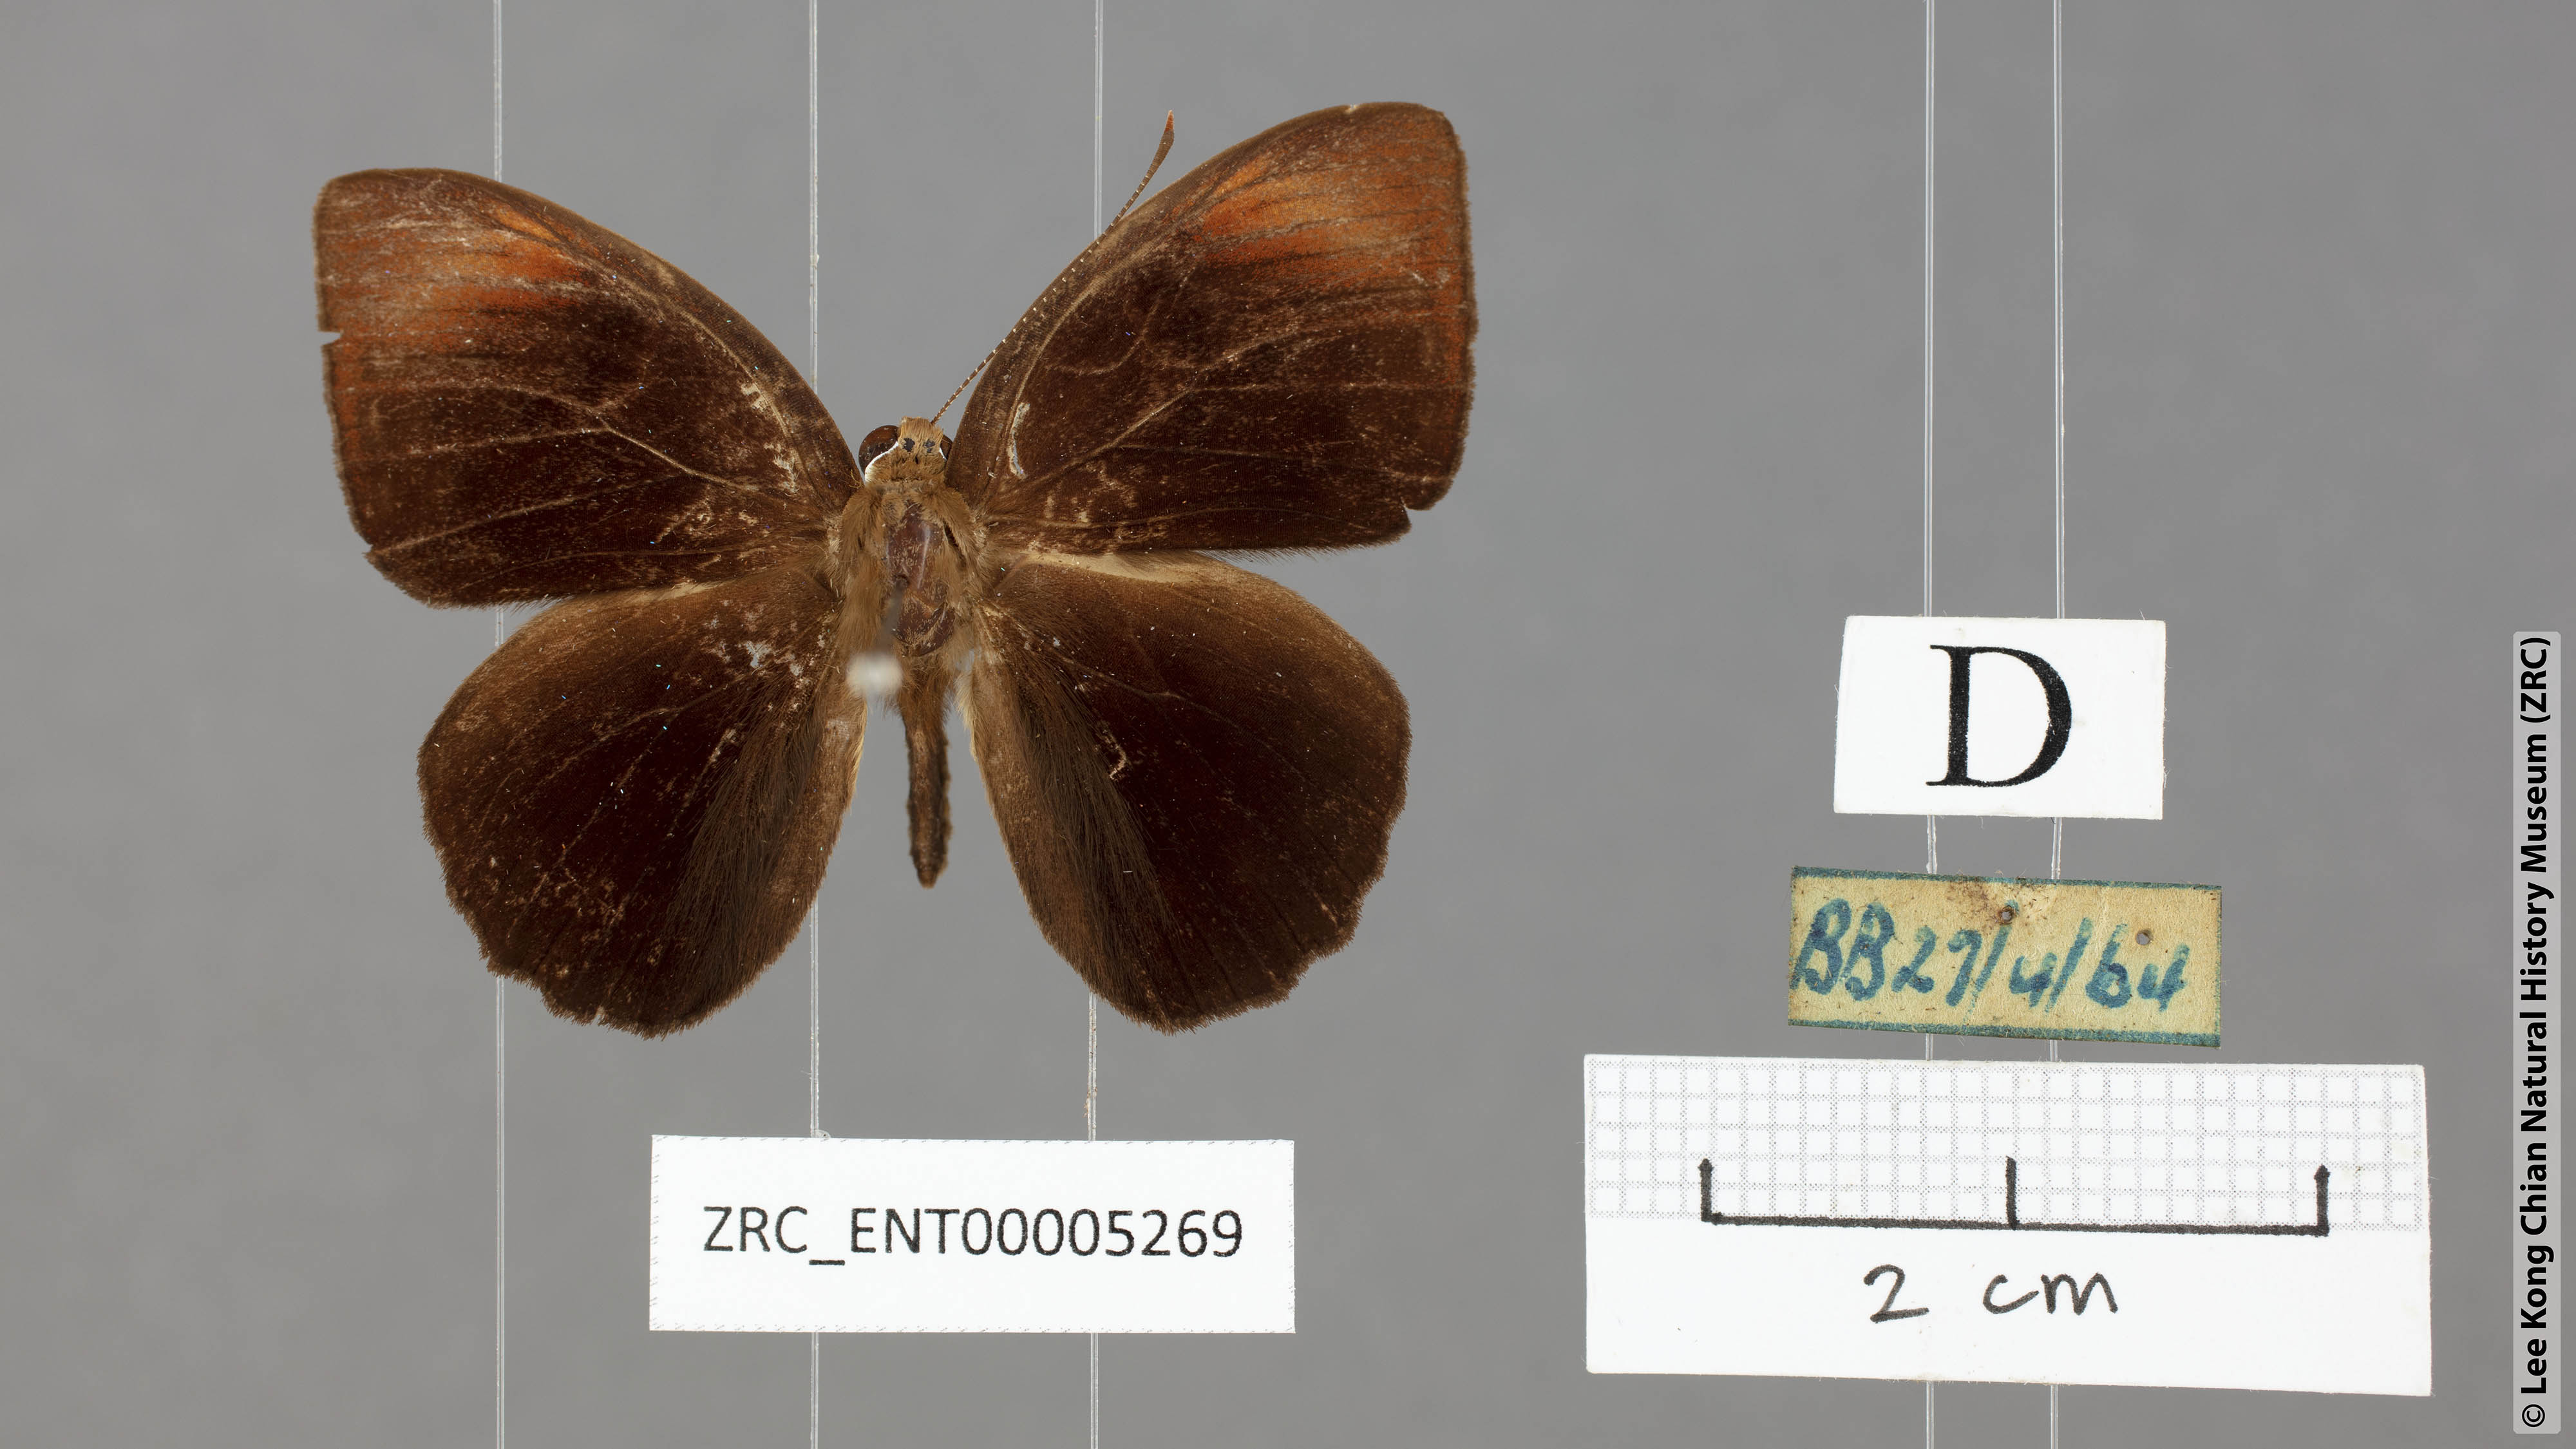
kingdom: Animalia
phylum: Arthropoda
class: Insecta
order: Lepidoptera
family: Erebidae
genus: Dysschema
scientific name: Dysschema
